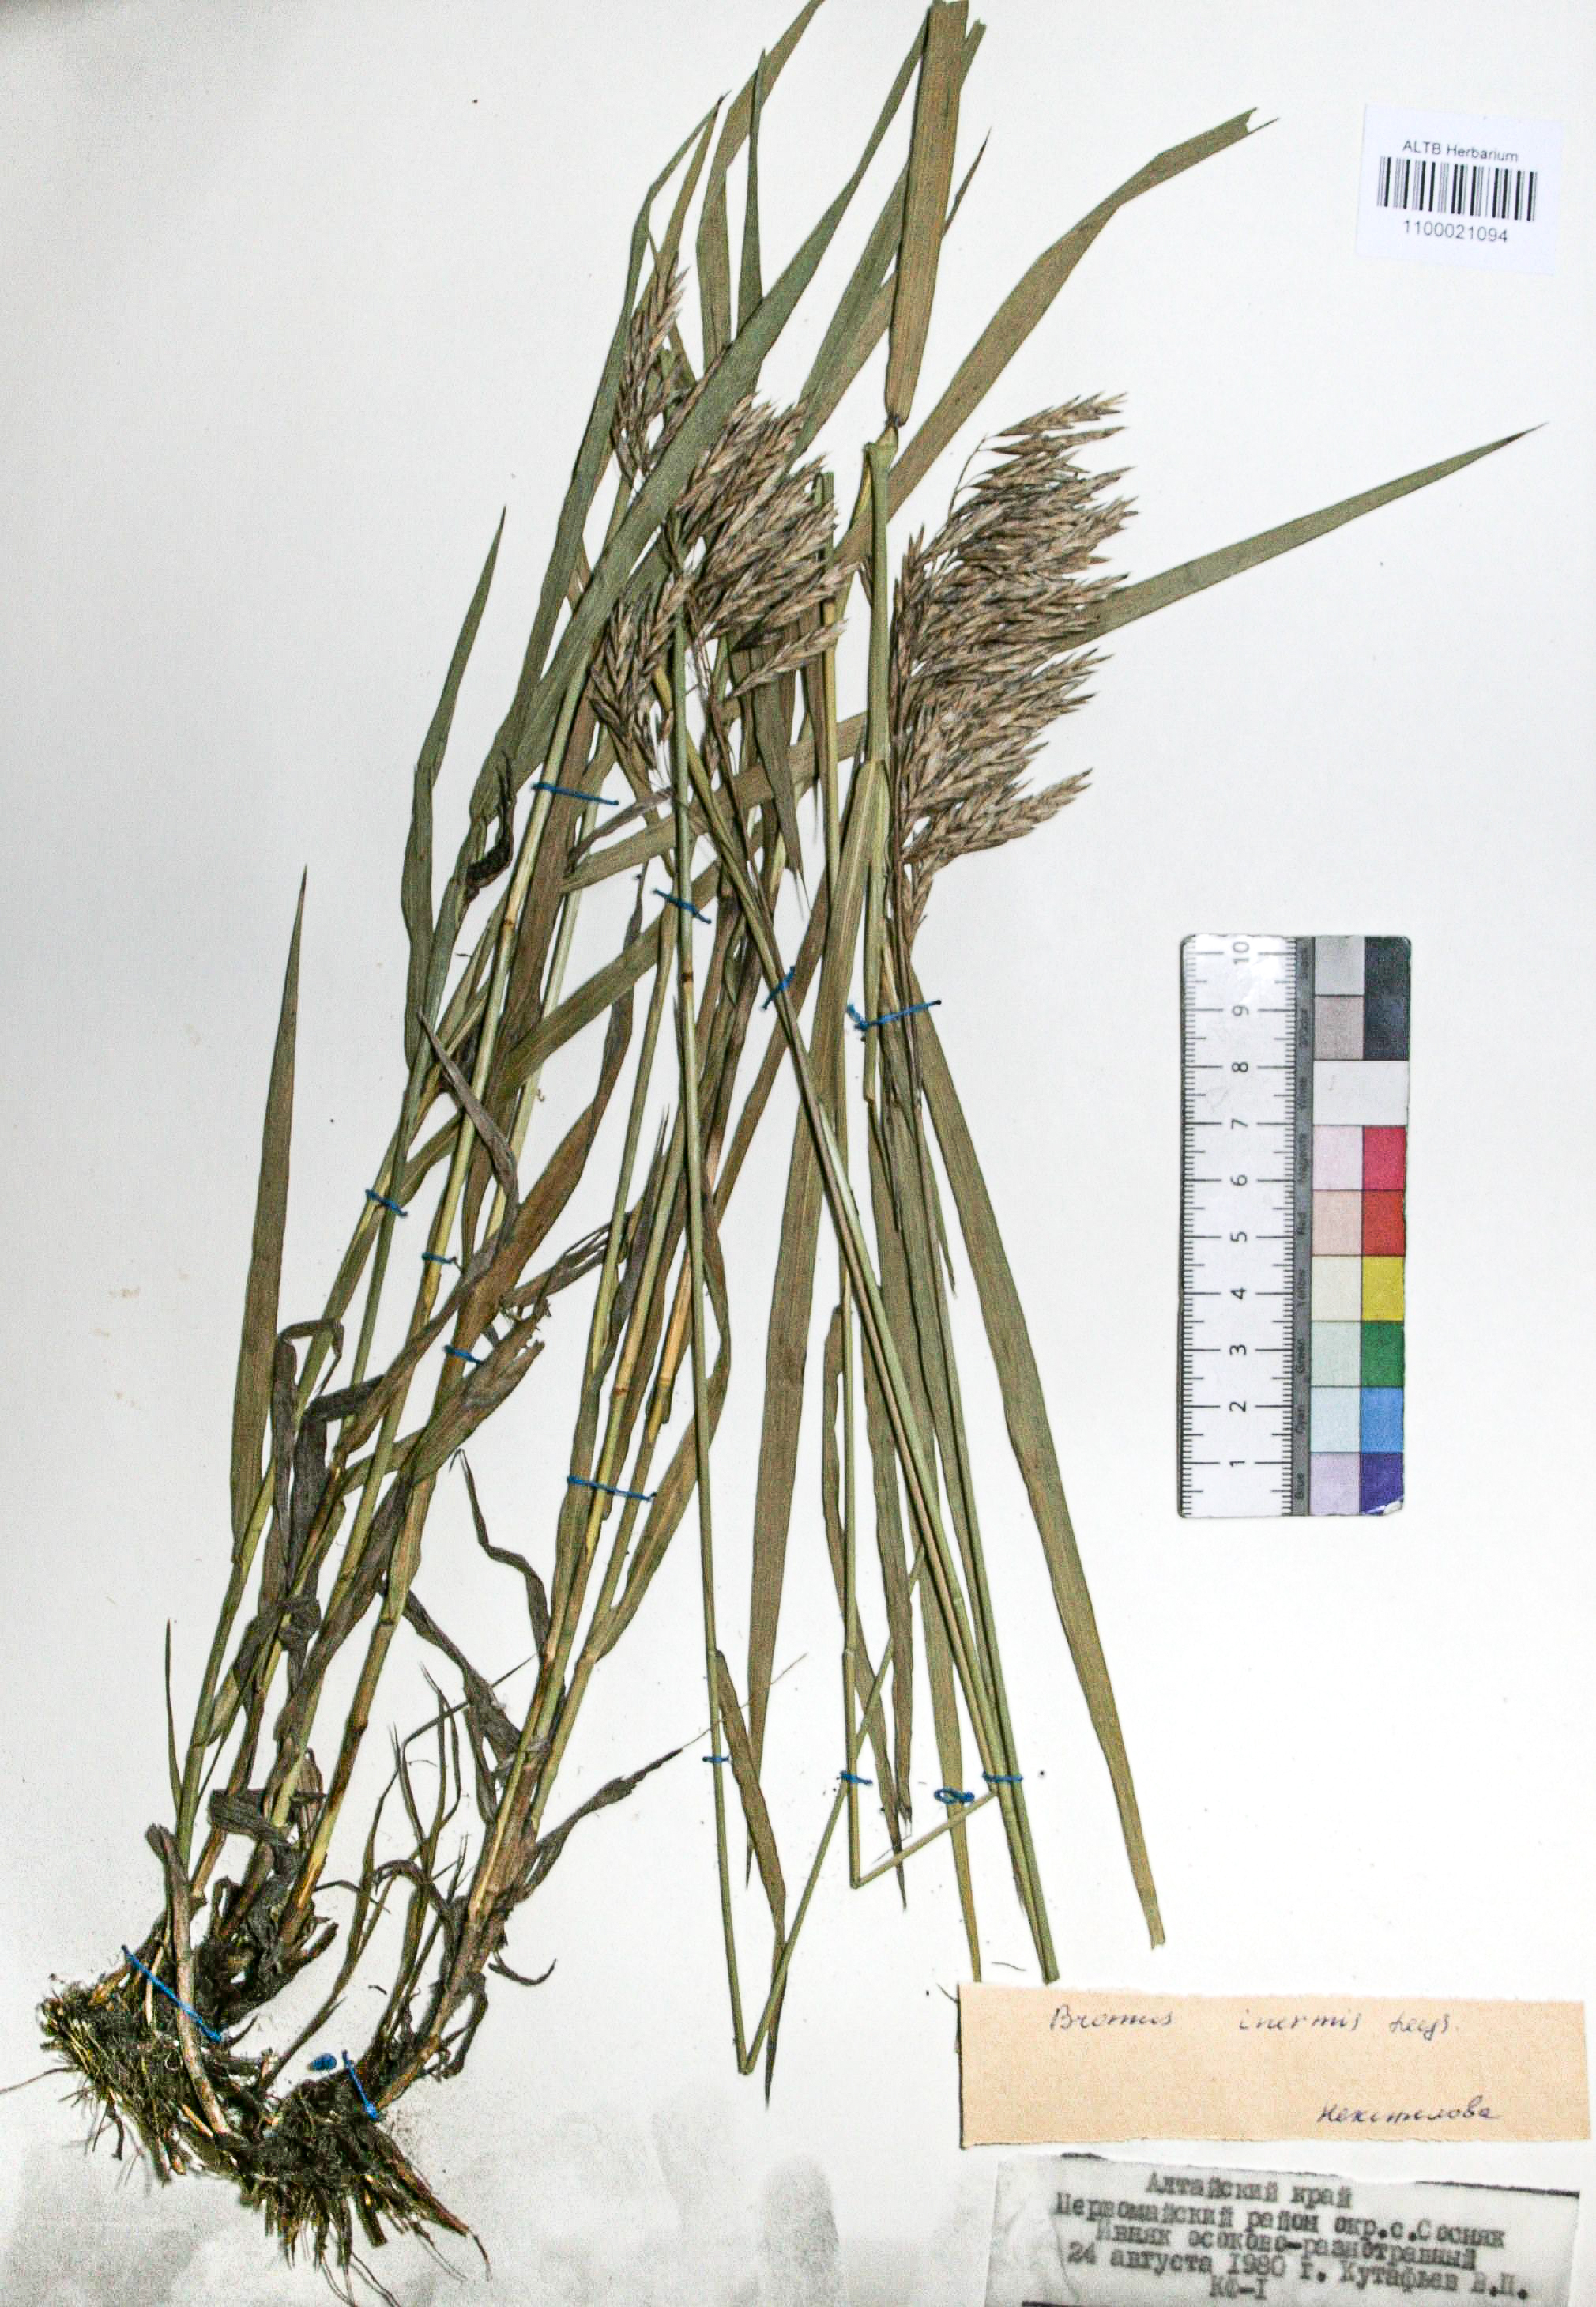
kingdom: Plantae
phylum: Tracheophyta
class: Liliopsida
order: Poales
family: Poaceae
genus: Bromus
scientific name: Bromus inermis
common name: Smooth brome
